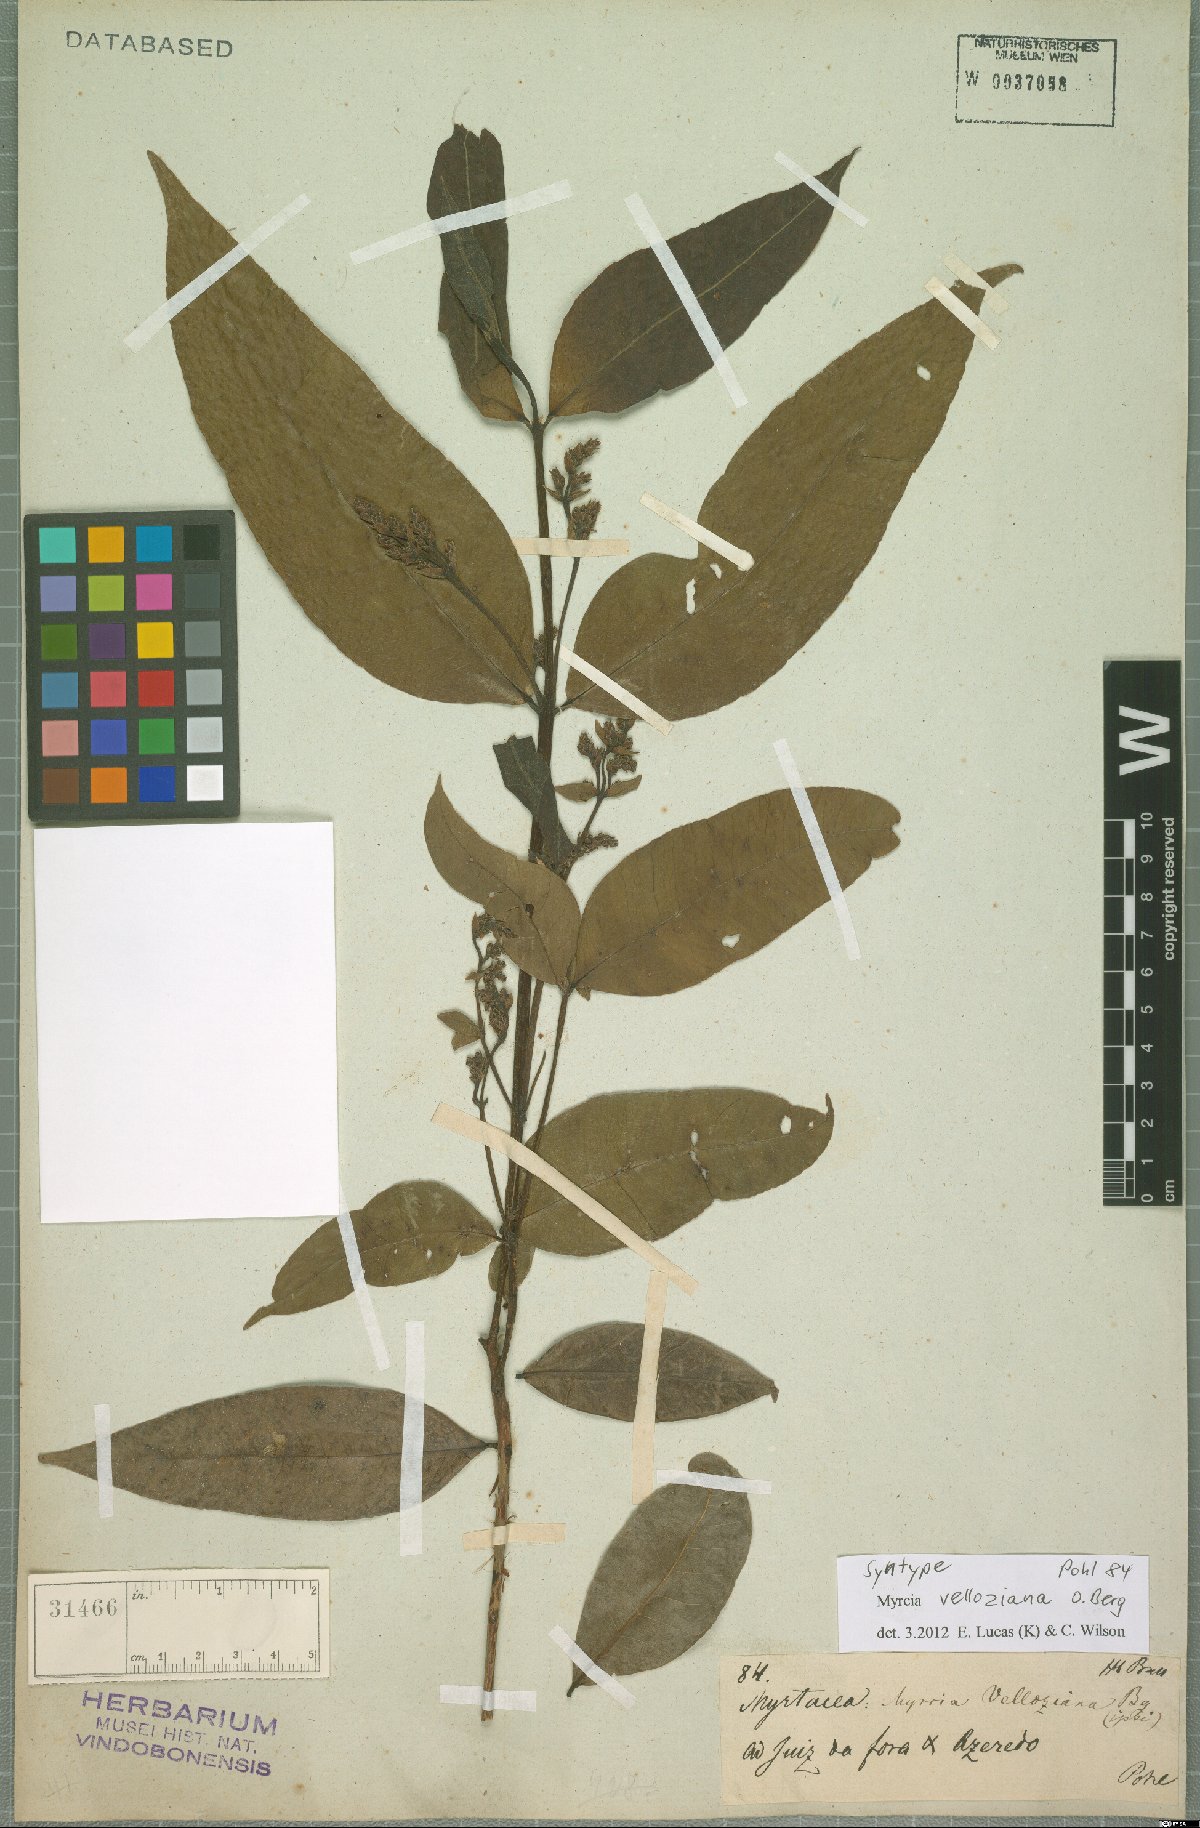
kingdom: Plantae
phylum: Tracheophyta
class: Magnoliopsida
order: Myrtales
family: Myrtaceae
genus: Myrcia
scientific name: Myrcia velloziana
